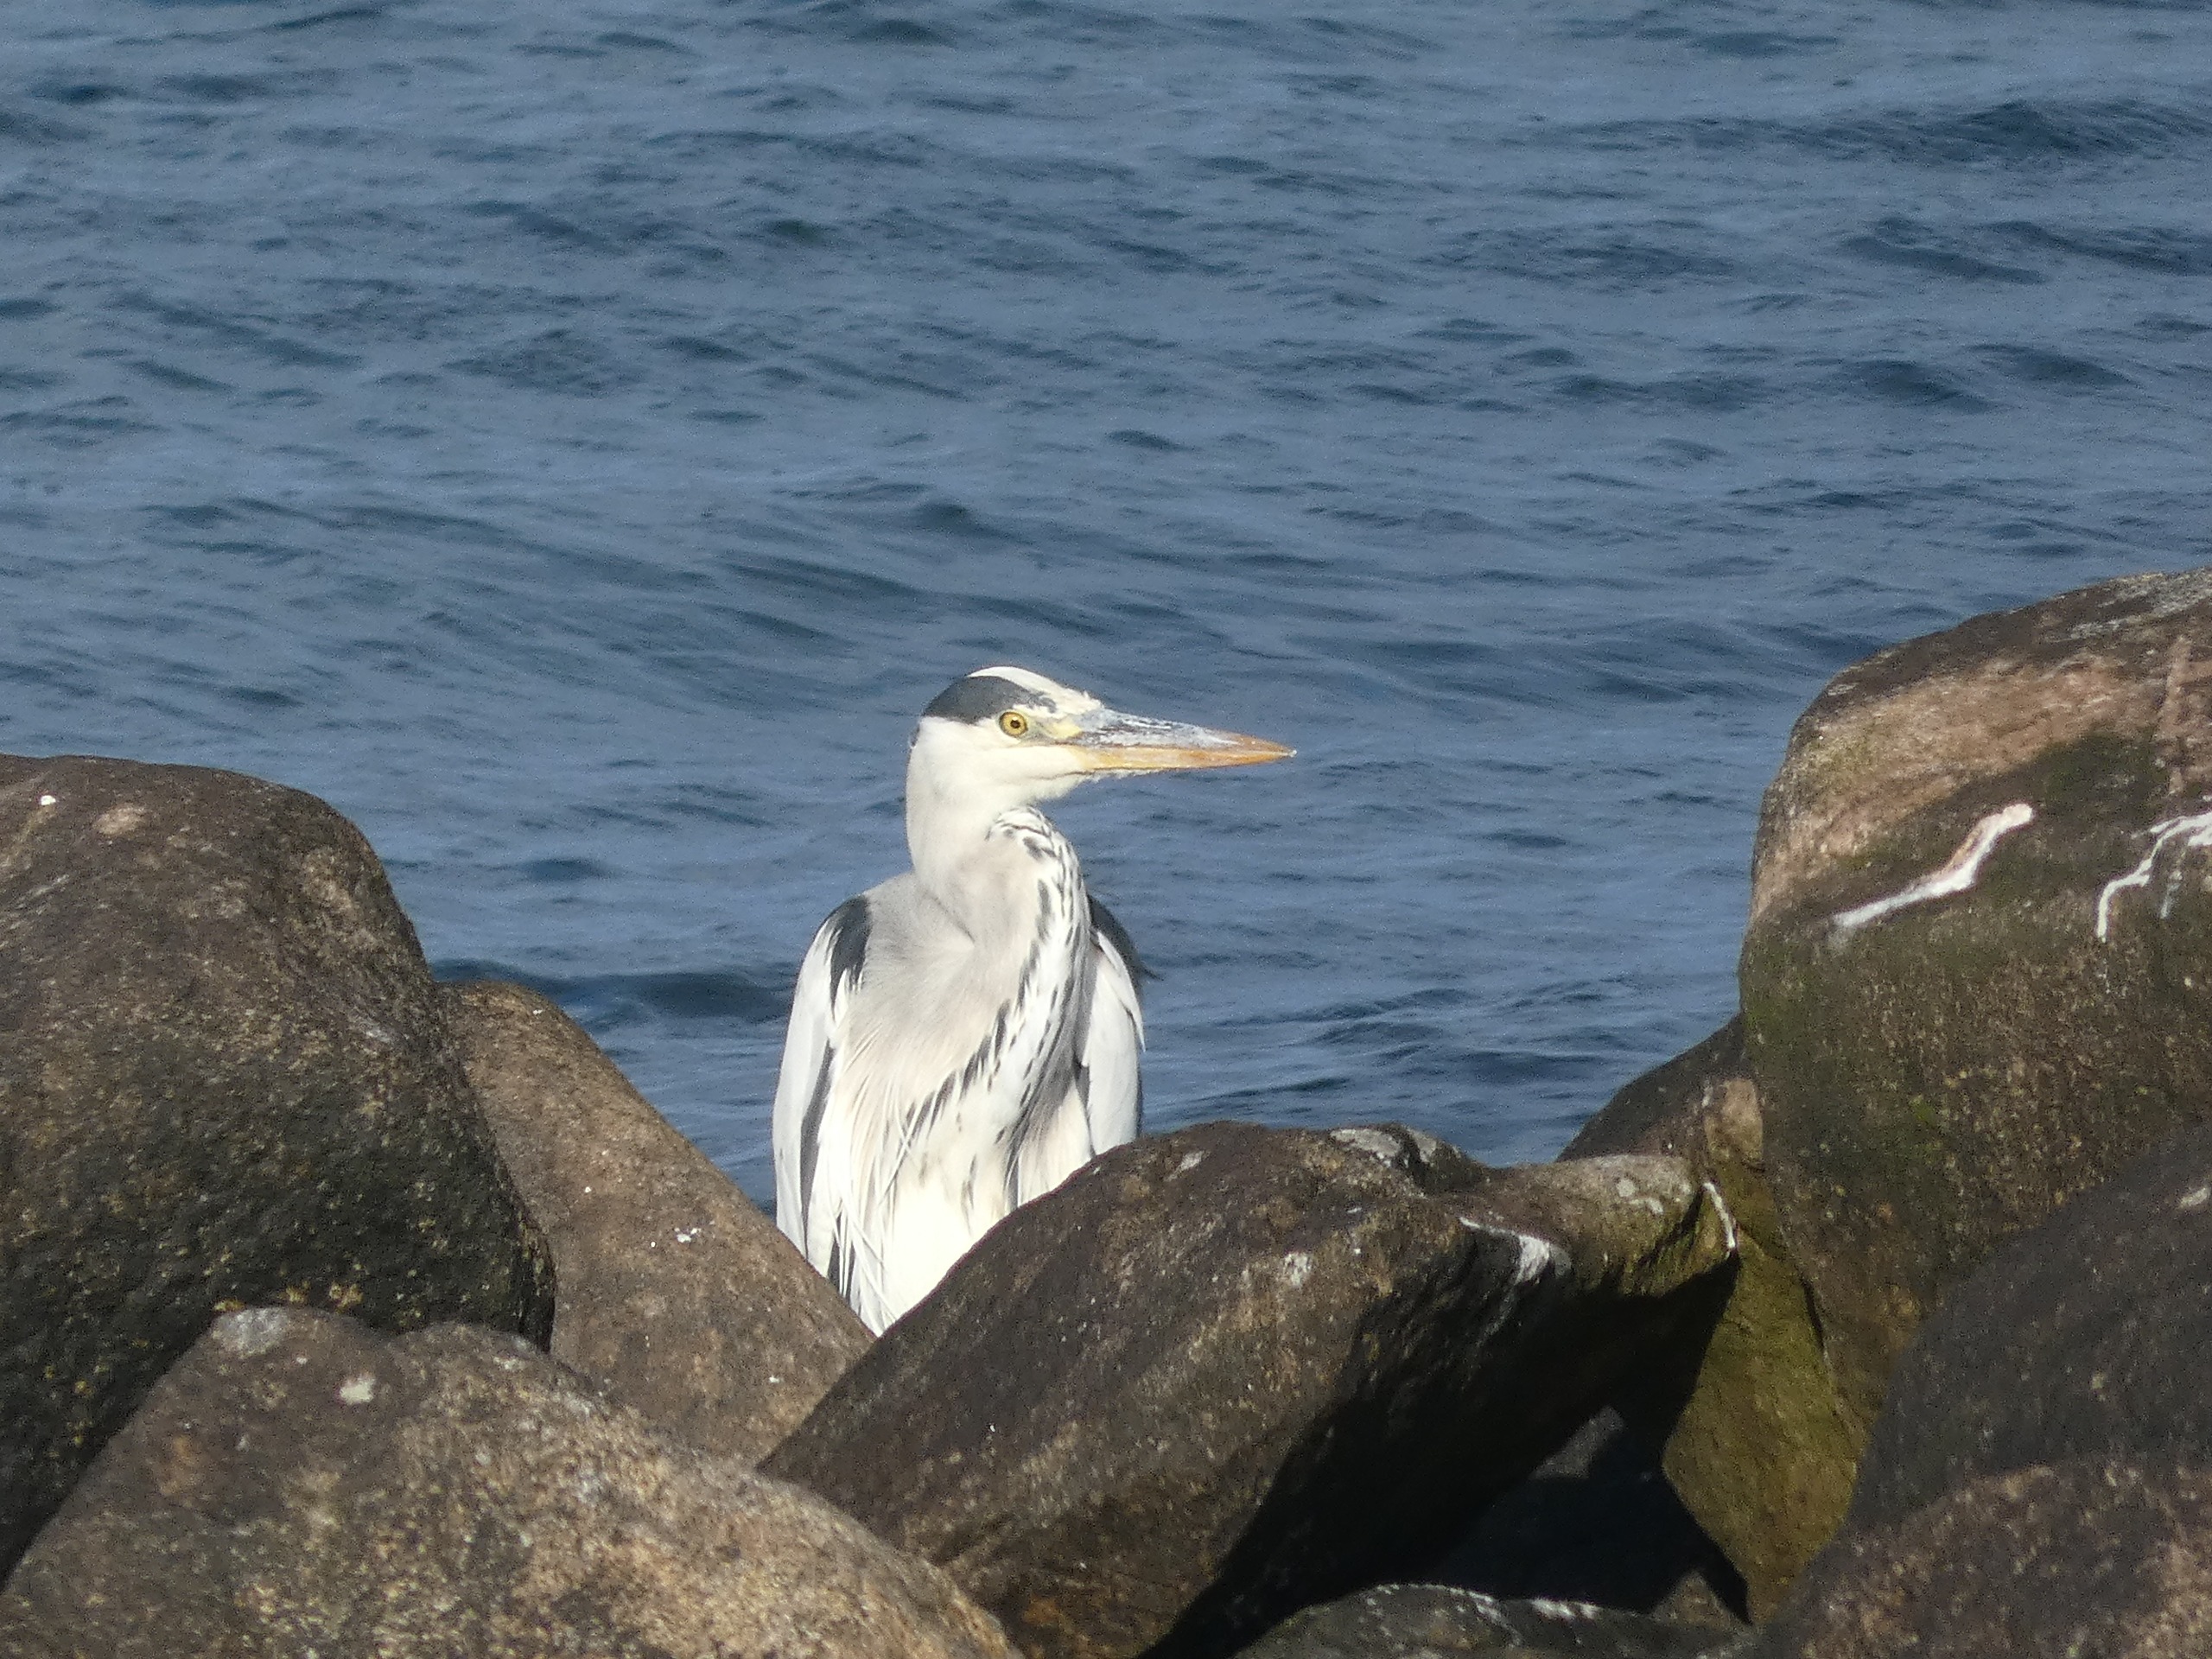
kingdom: Animalia
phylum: Chordata
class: Aves
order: Pelecaniformes
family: Ardeidae
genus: Ardea
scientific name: Ardea cinerea
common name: Fiskehejre
